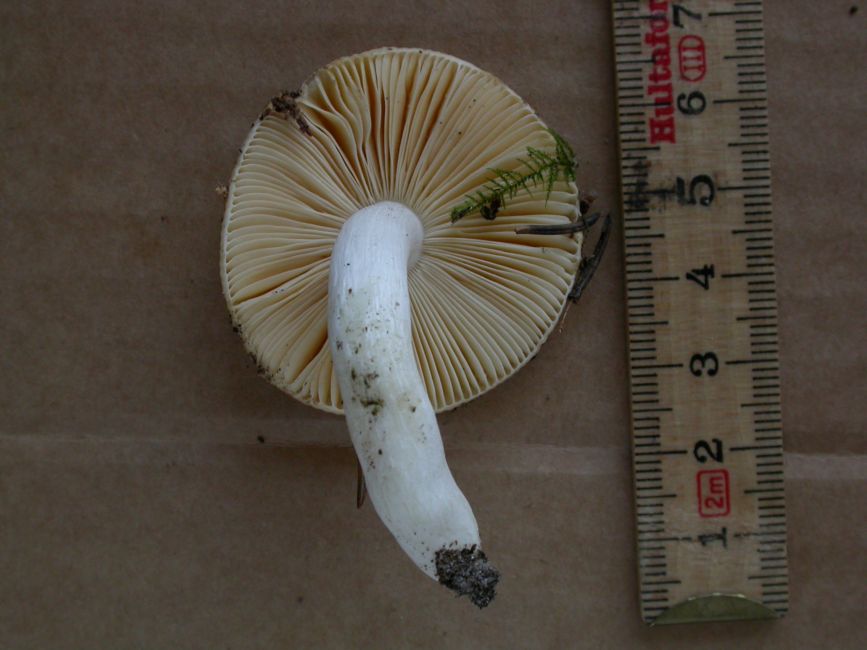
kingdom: Fungi
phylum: Basidiomycota
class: Agaricomycetes
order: Russulales
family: Russulaceae
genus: Russula
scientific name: Russula risigallina
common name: abrikos-skørhat
